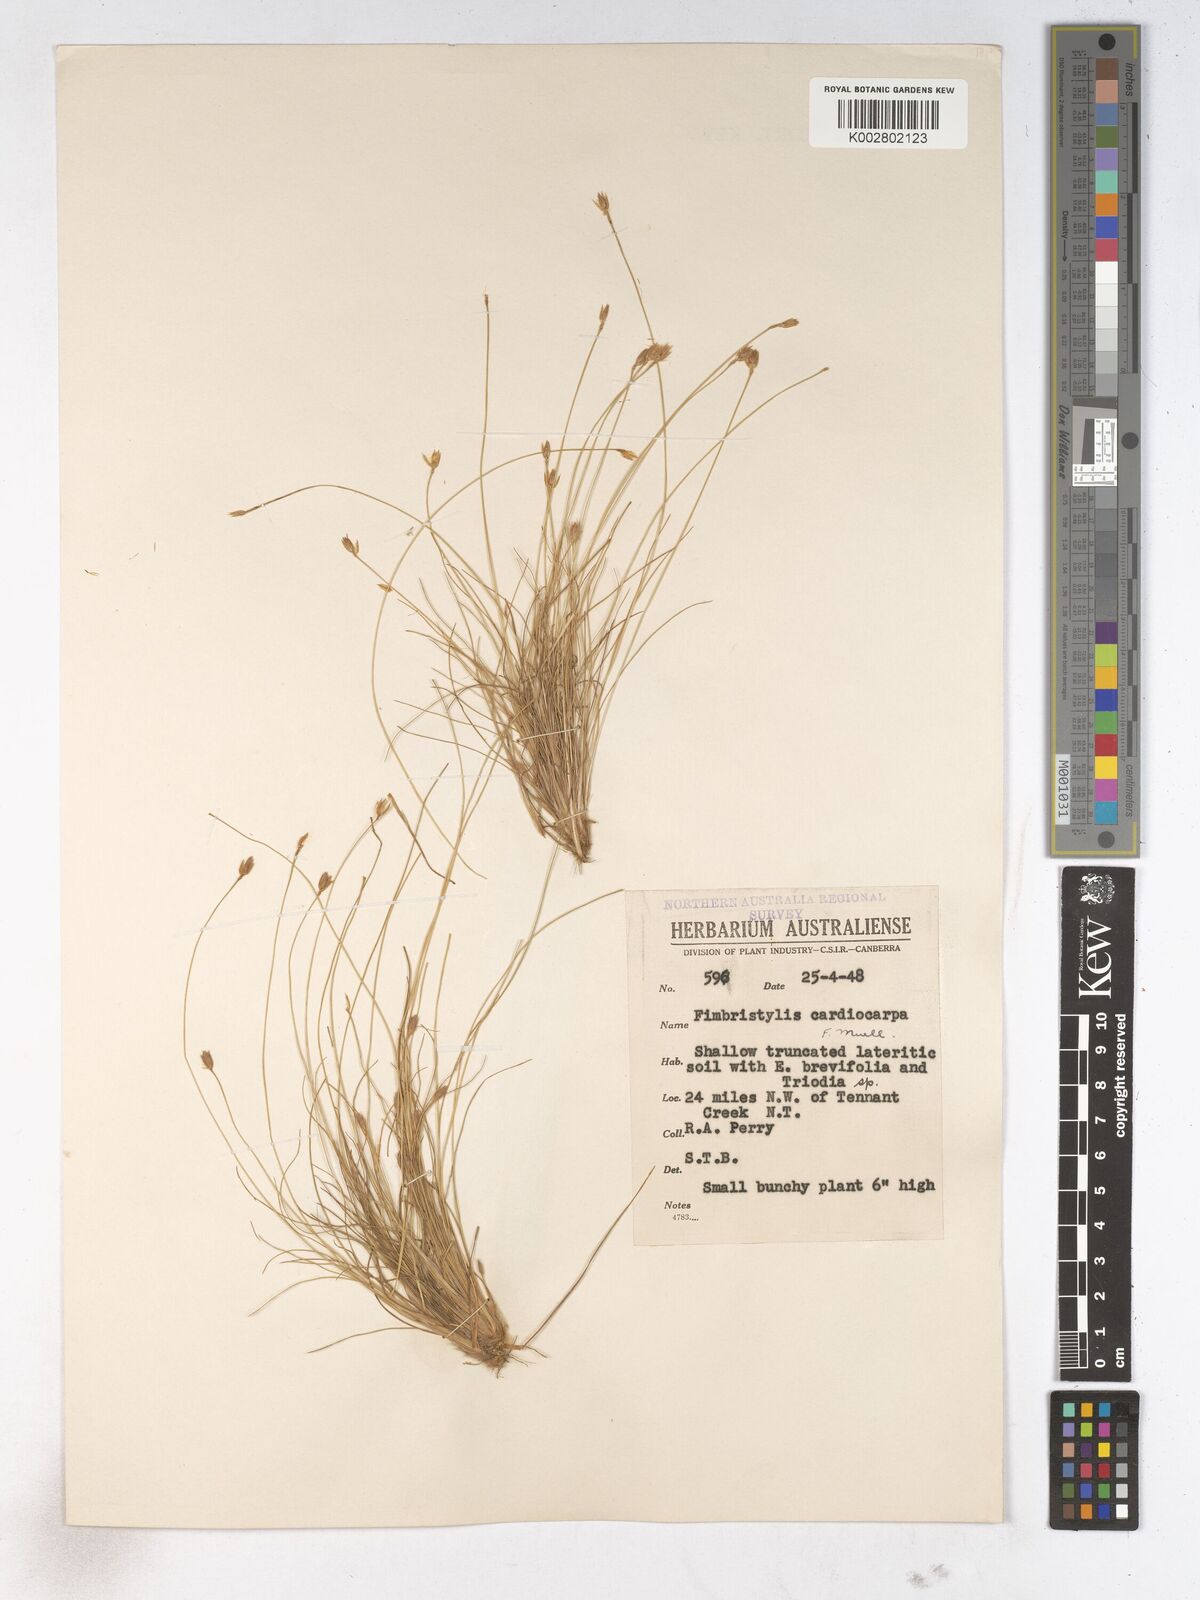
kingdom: Plantae
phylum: Tracheophyta
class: Liliopsida
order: Poales
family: Cyperaceae
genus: Fimbristylis
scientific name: Fimbristylis cardiocarpa
